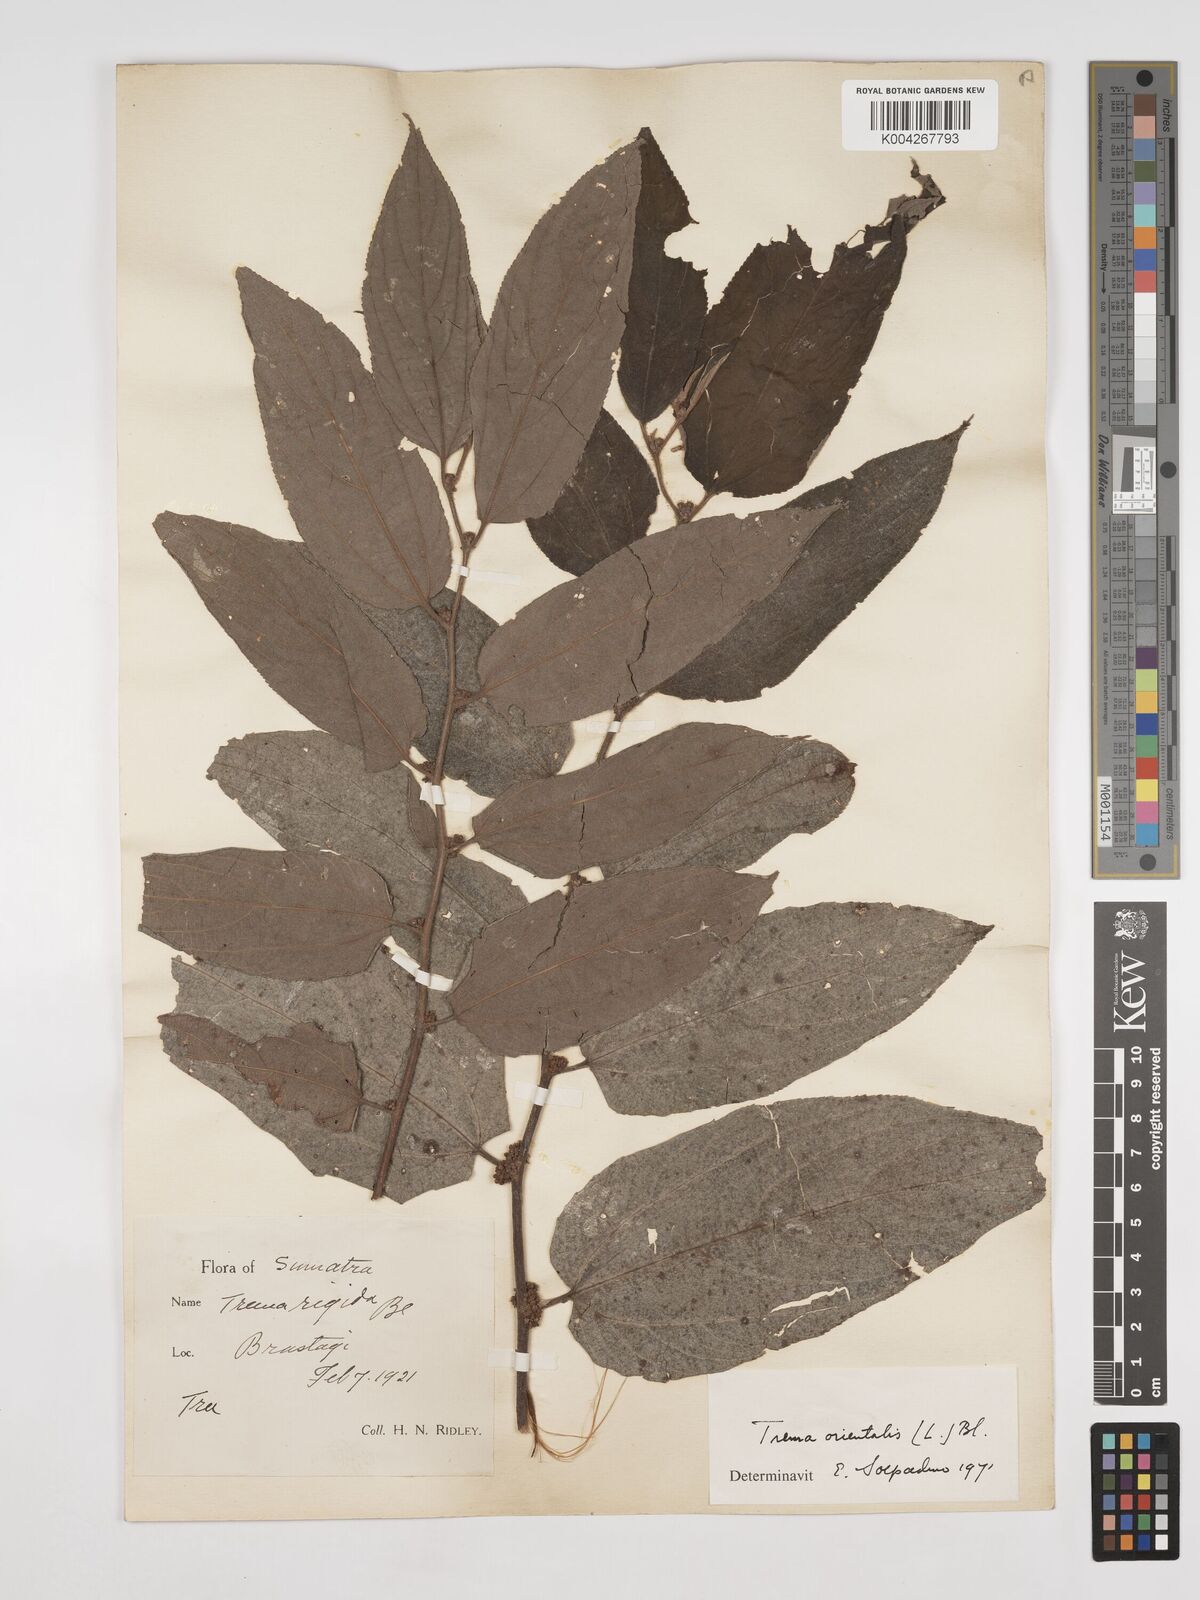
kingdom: Plantae
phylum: Tracheophyta
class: Magnoliopsida
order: Rosales
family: Cannabaceae
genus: Trema
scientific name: Trema orientale
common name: Indian charcoal tree
